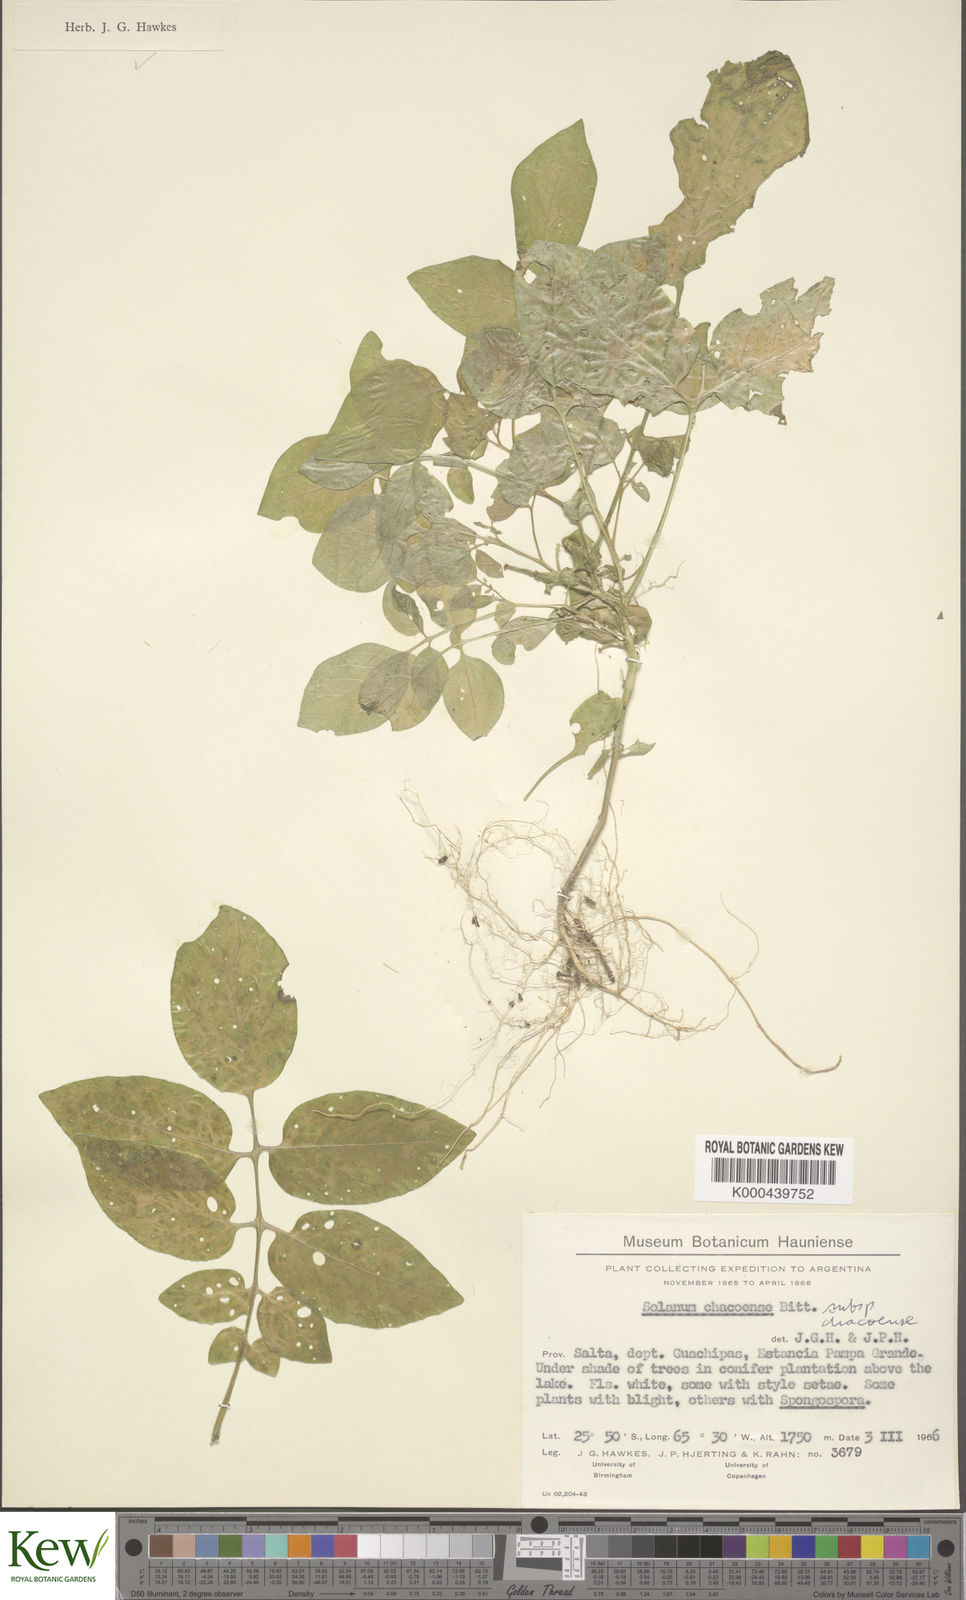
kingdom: Plantae
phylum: Tracheophyta
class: Magnoliopsida
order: Solanales
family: Solanaceae
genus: Solanum
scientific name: Solanum chacoense
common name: Chaco potato
